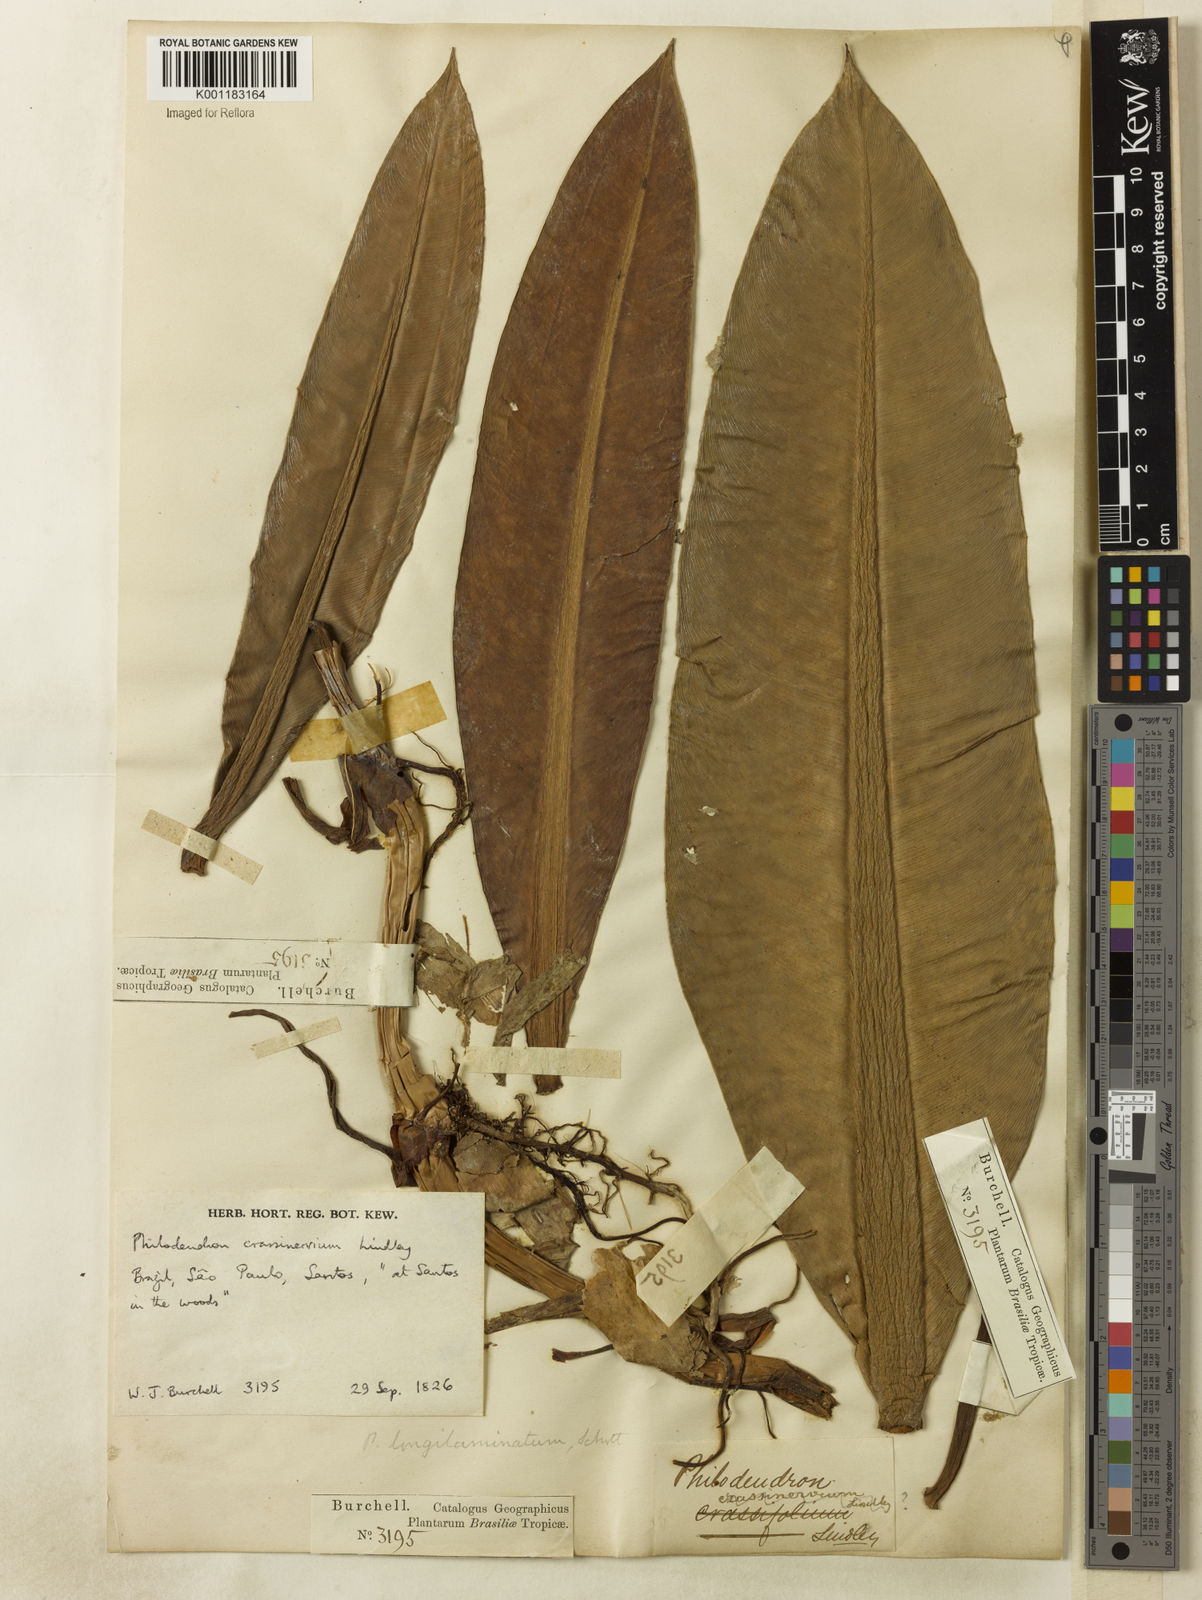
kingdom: Plantae
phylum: Tracheophyta
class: Liliopsida
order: Alismatales
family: Araceae
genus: Philodendron
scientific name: Philodendron crassinervium
